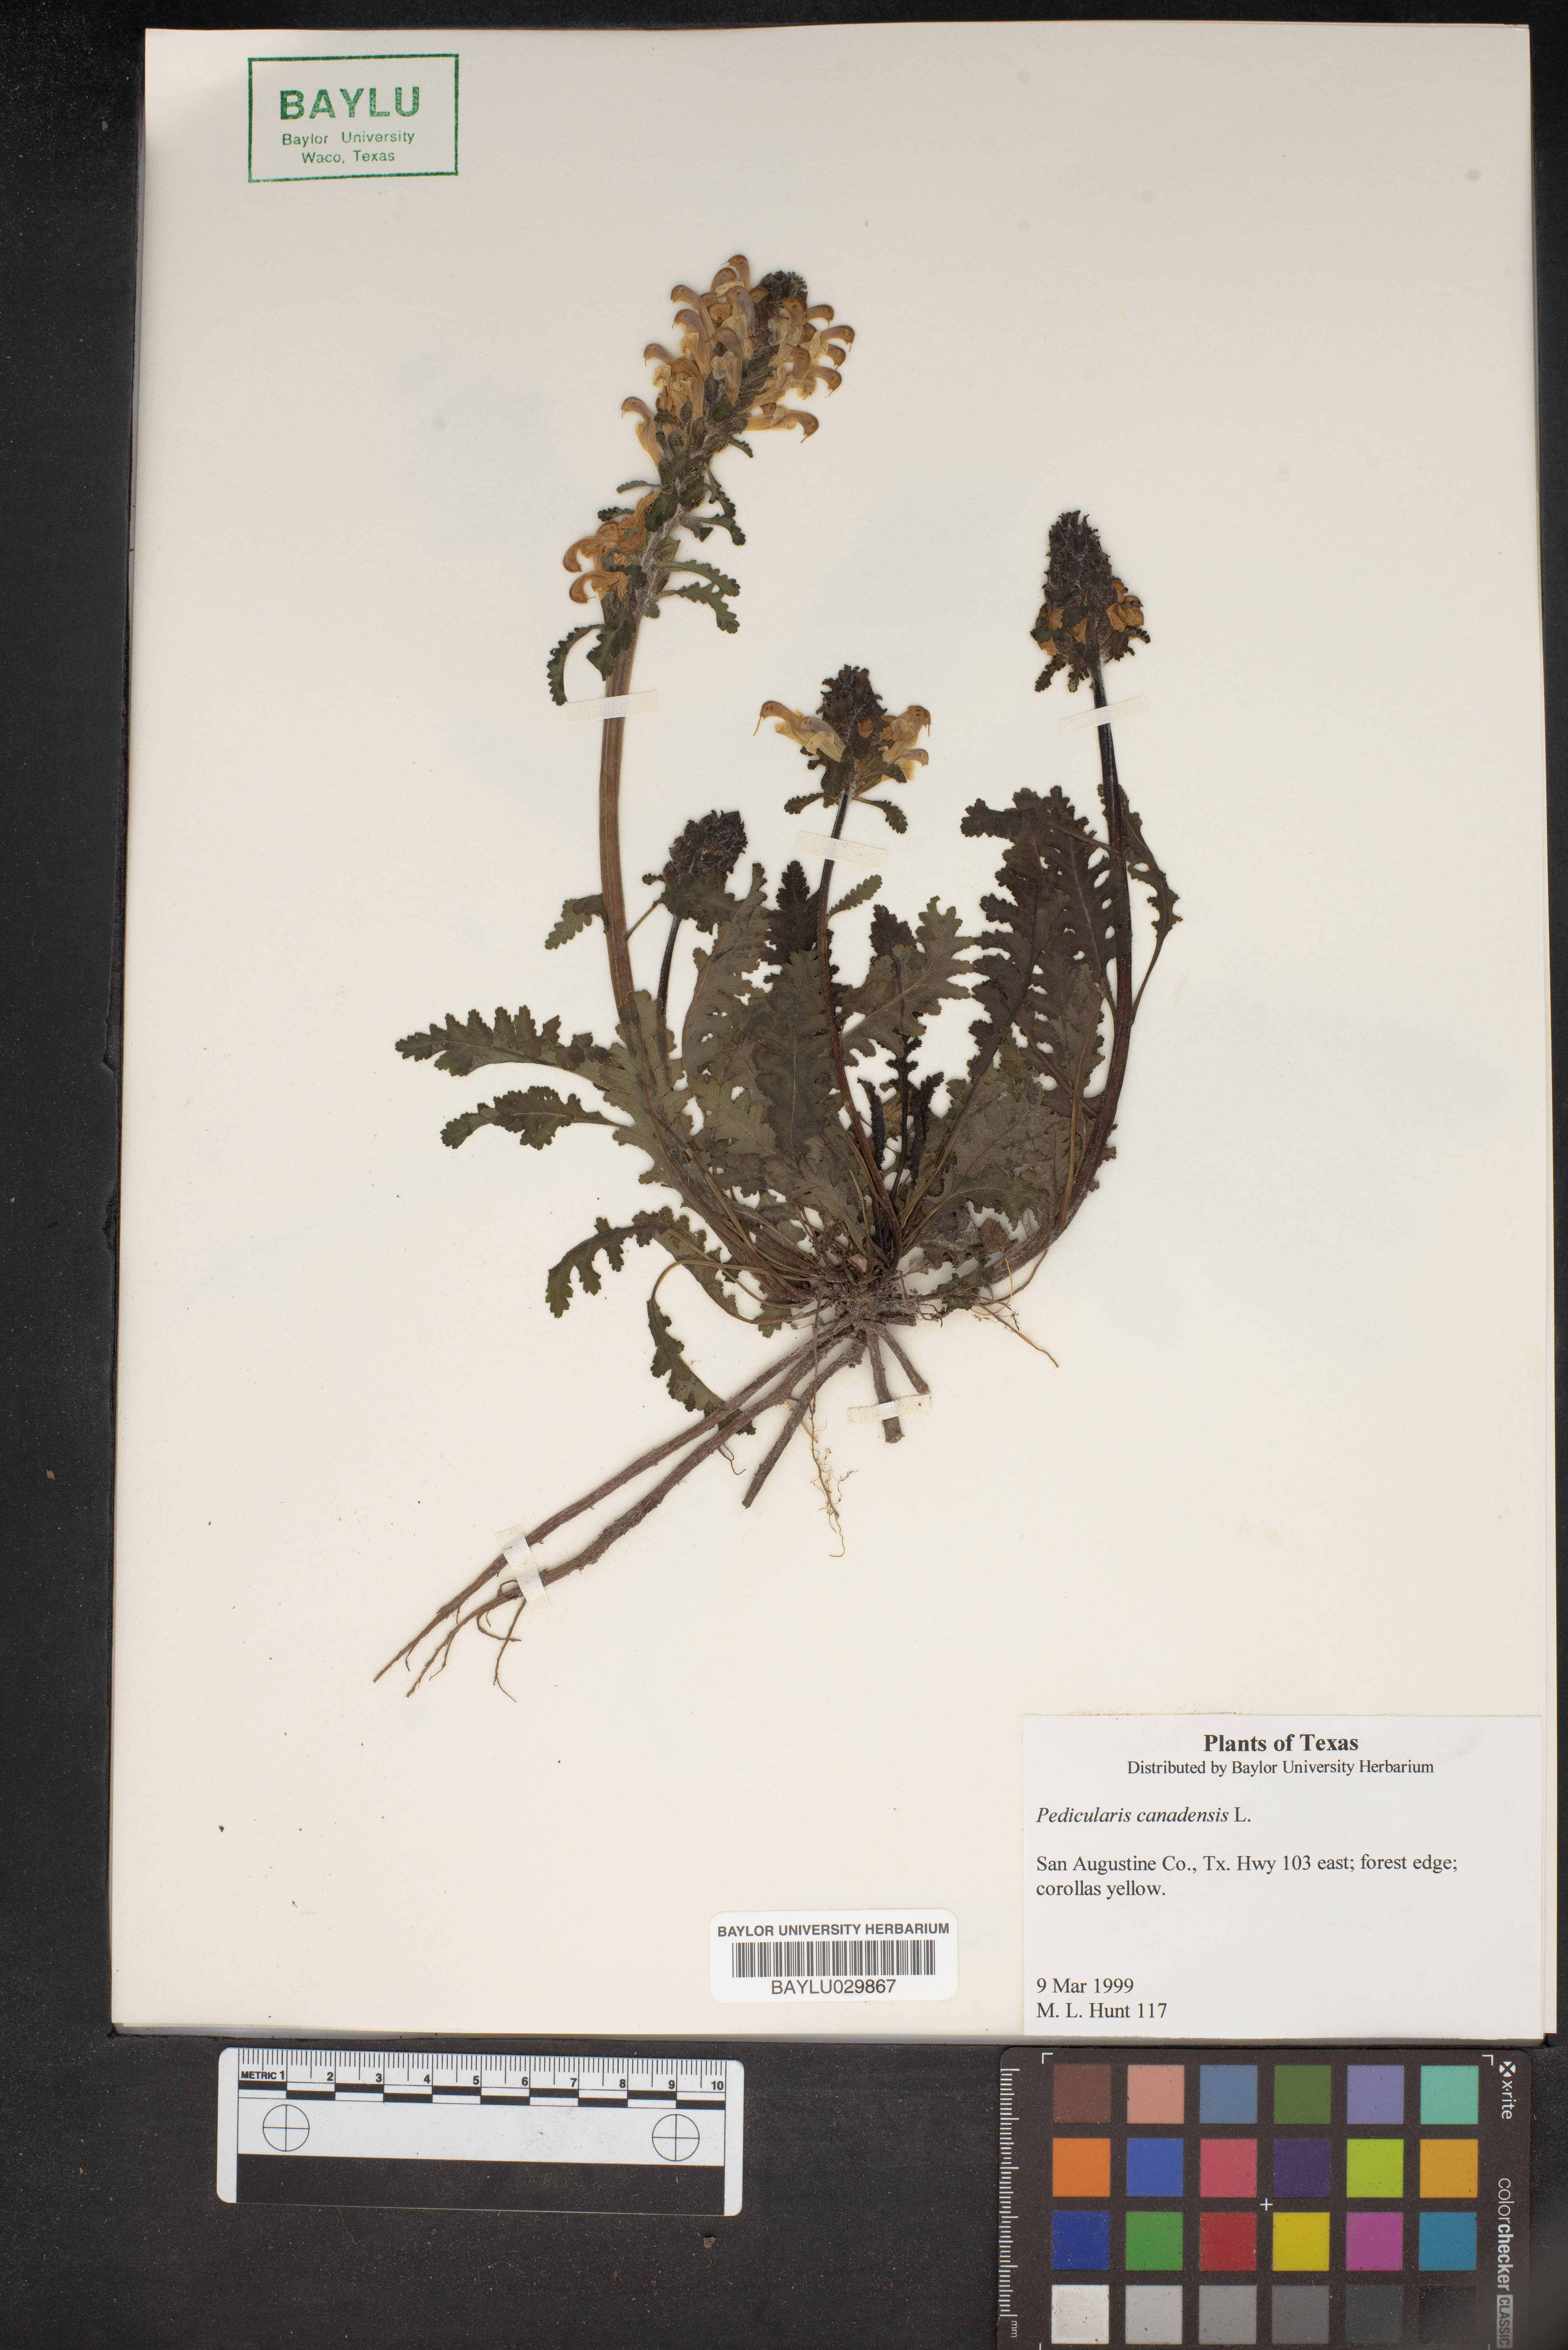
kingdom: Plantae
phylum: Tracheophyta
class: Magnoliopsida
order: Lamiales
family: Orobanchaceae
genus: Pedicularis
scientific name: Pedicularis canadensis
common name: Early lousewort
